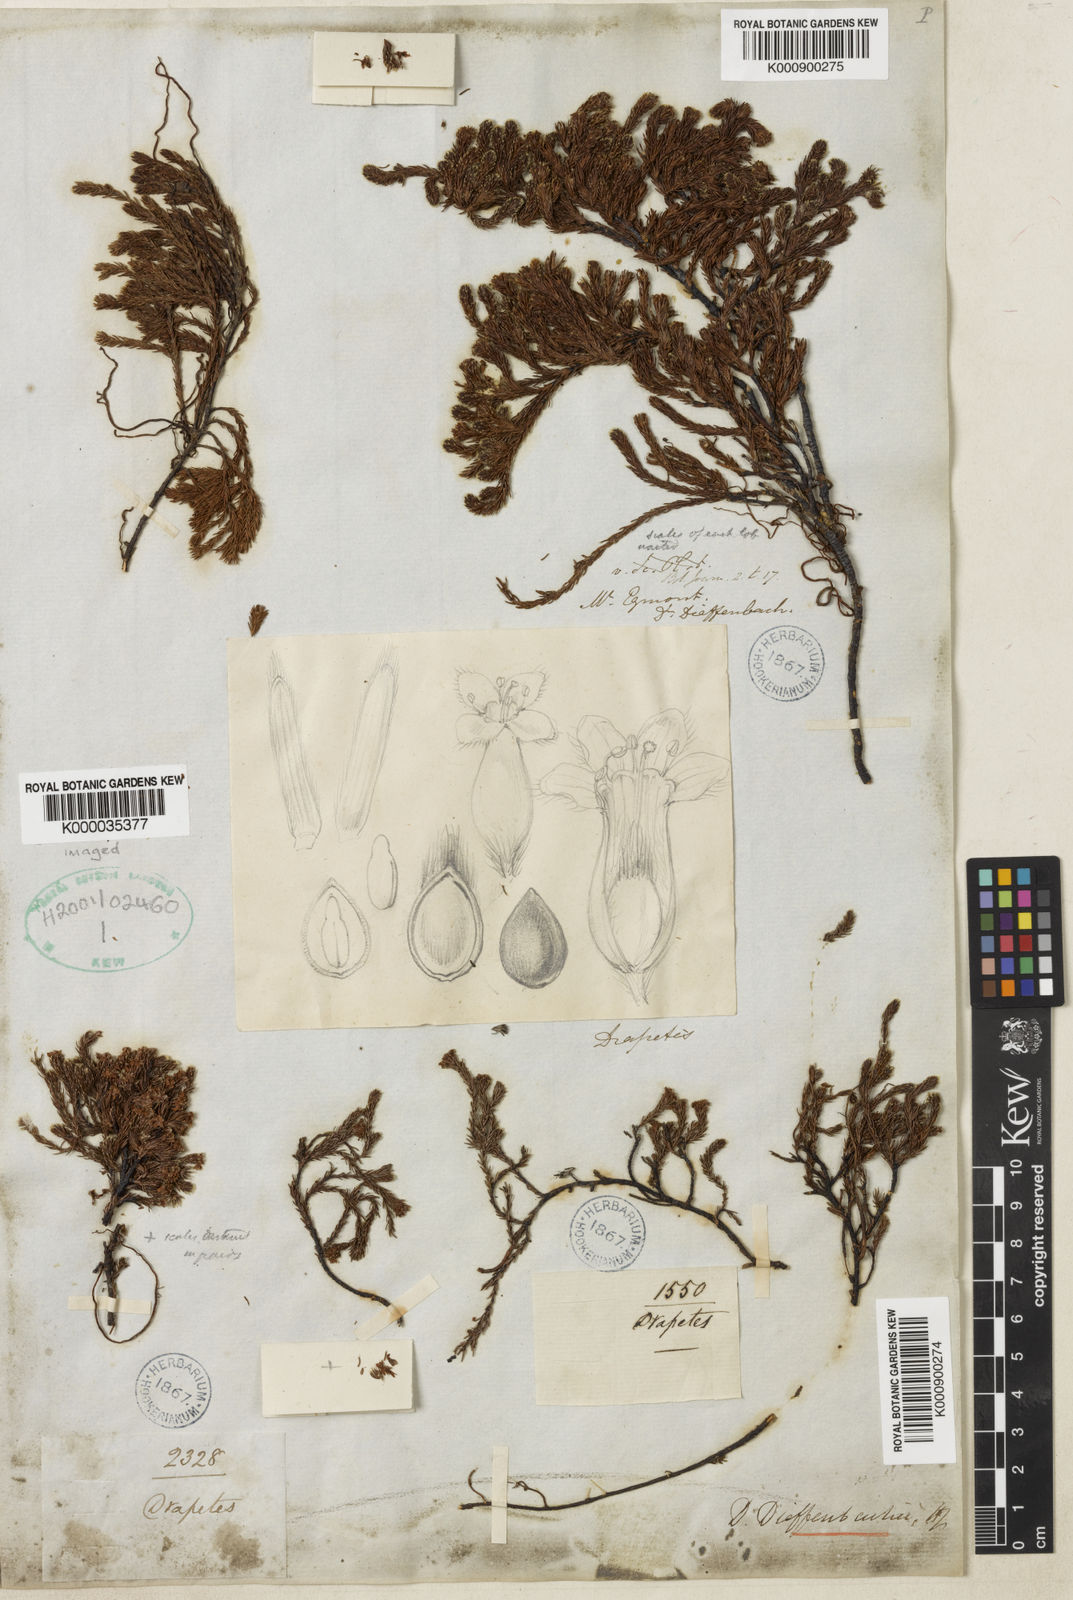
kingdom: Plantae
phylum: Tracheophyta
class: Magnoliopsida
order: Malvales
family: Thymelaeaceae
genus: Kelleria
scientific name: Kelleria dieffenbachii
